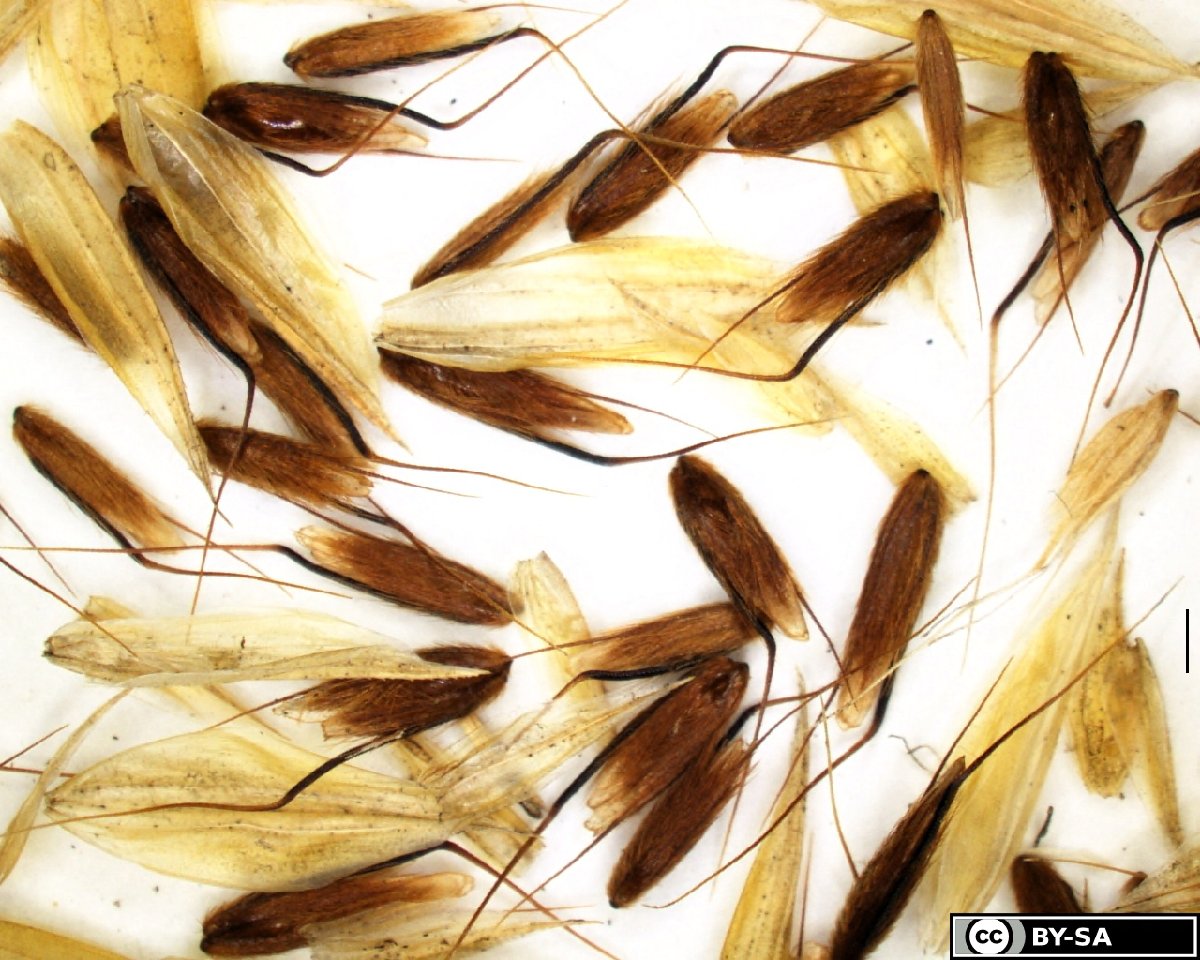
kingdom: Plantae
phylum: Tracheophyta
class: Liliopsida
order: Poales
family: Poaceae
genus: Anthoxanthum
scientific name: Anthoxanthum nipponicum
